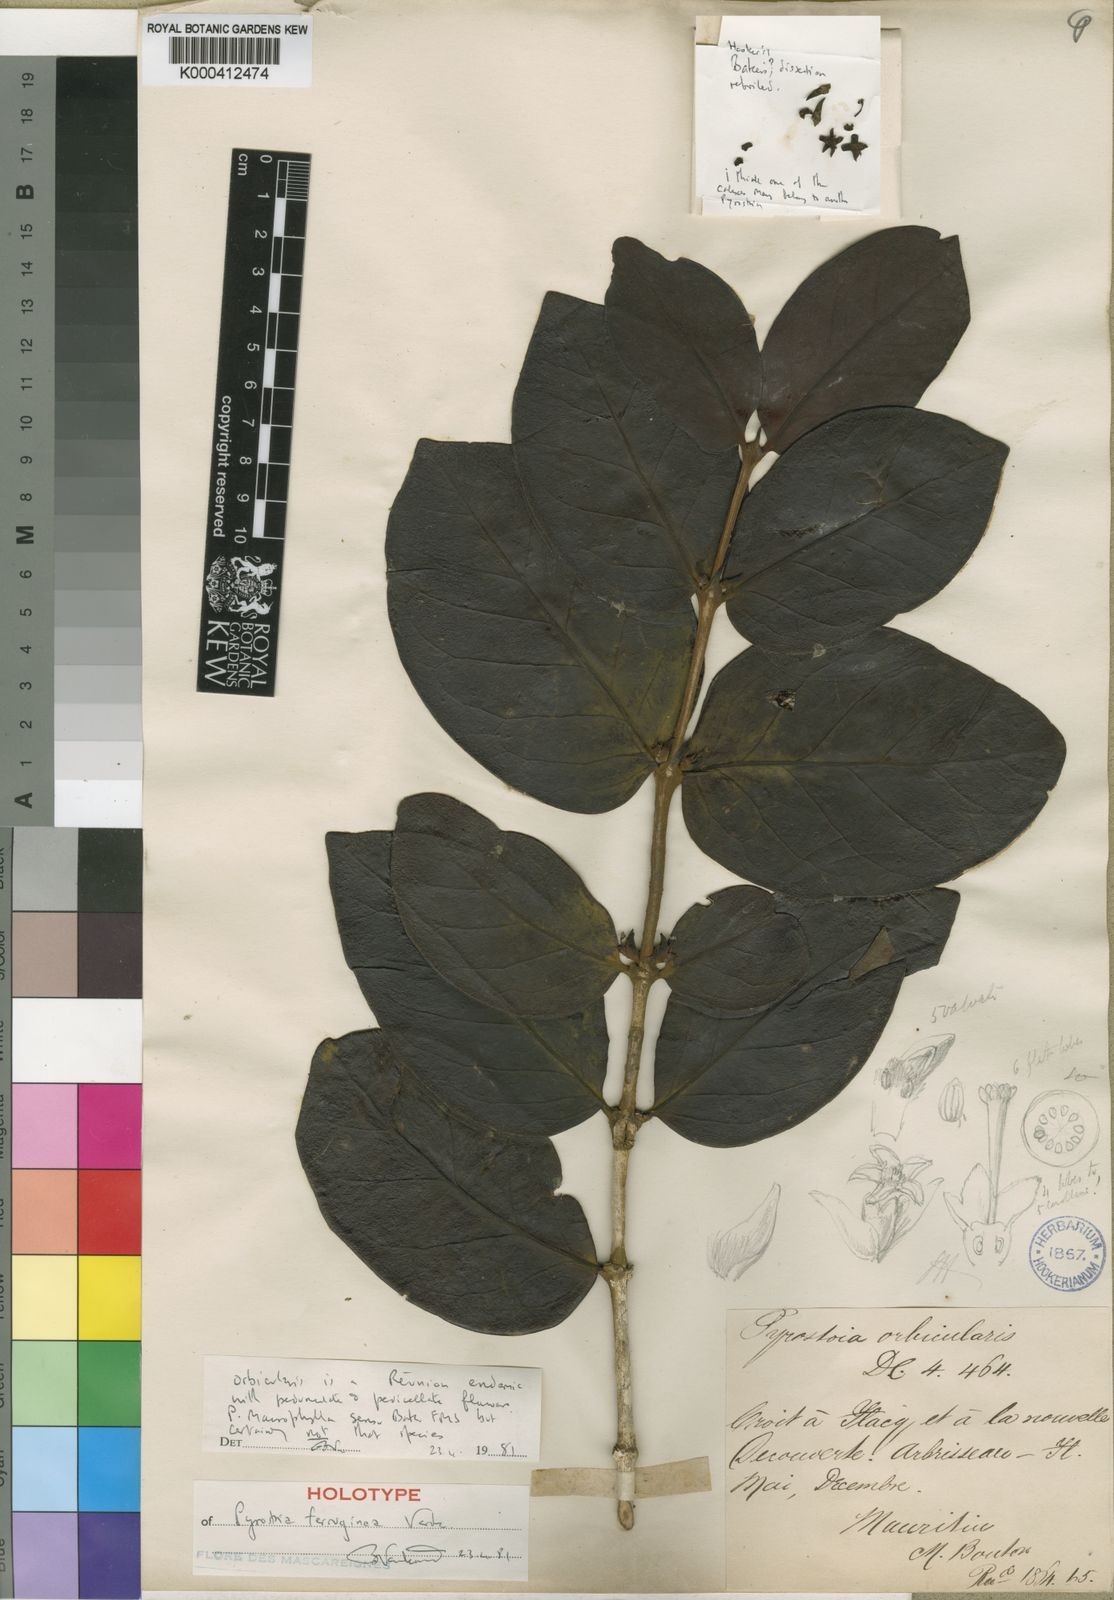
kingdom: Plantae
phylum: Tracheophyta
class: Magnoliopsida
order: Gentianales
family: Rubiaceae
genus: Pyrostria
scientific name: Pyrostria ferruginea
